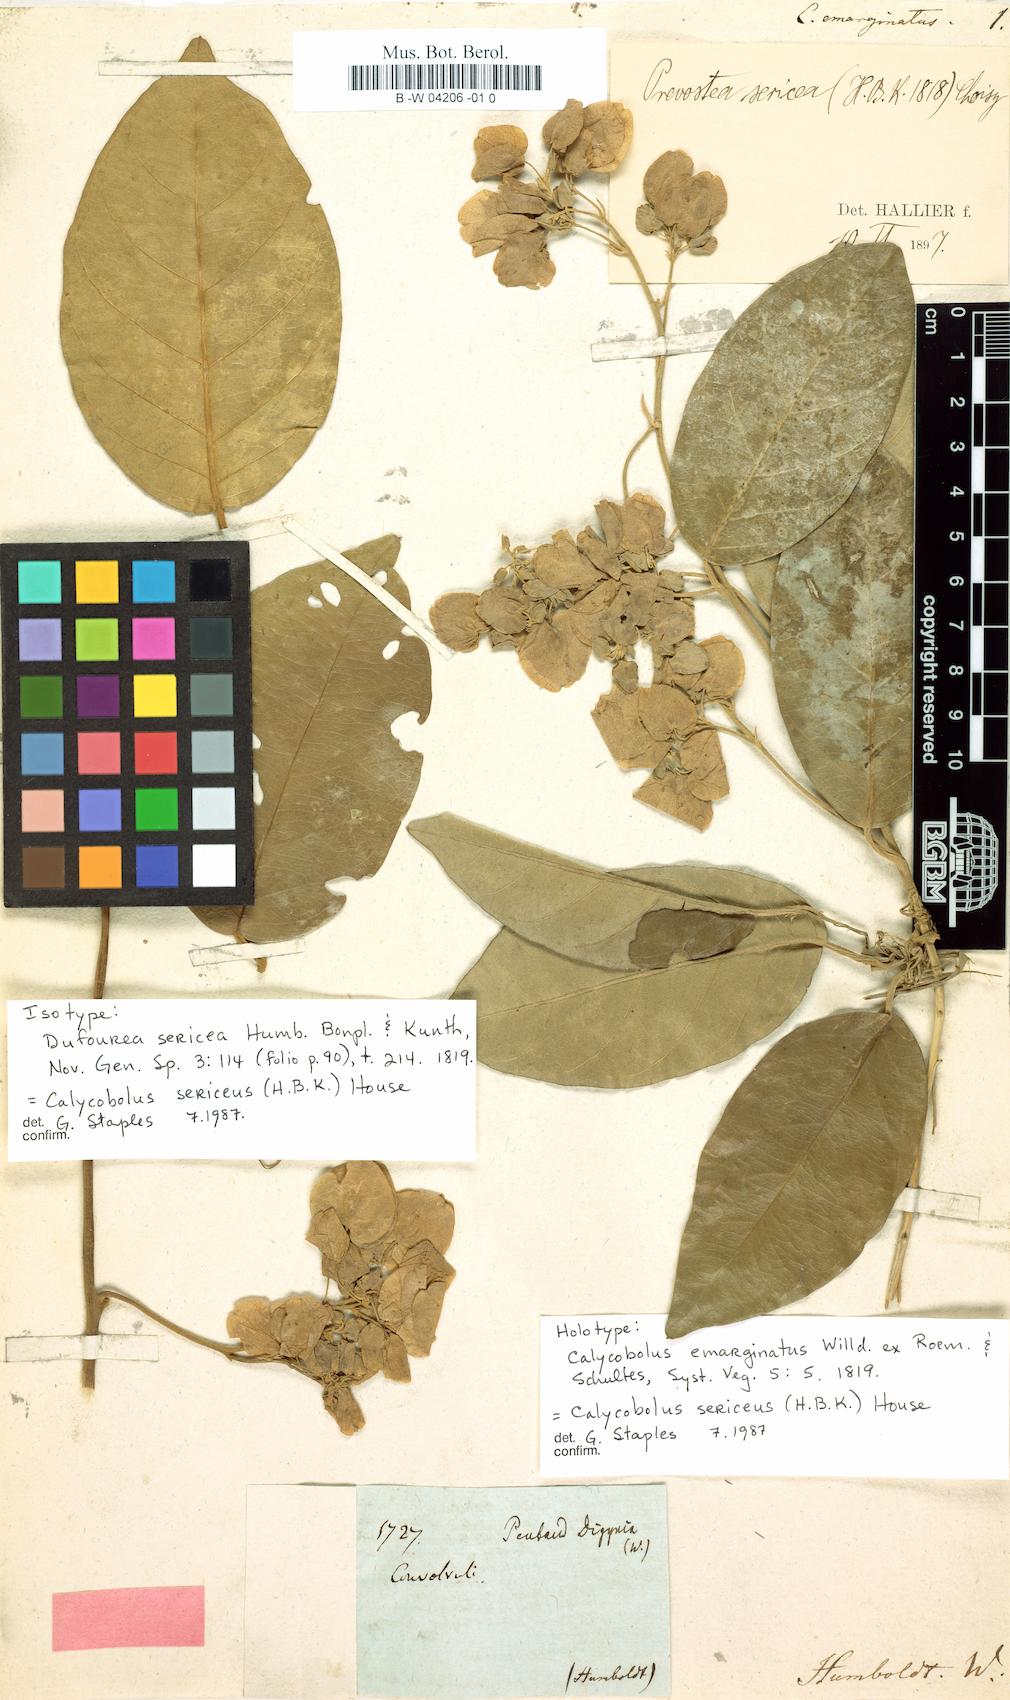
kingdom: Plantae
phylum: Tracheophyta
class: Magnoliopsida
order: Solanales
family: Convolvulaceae
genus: Calycobolus
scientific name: Calycobolus emarginatus
